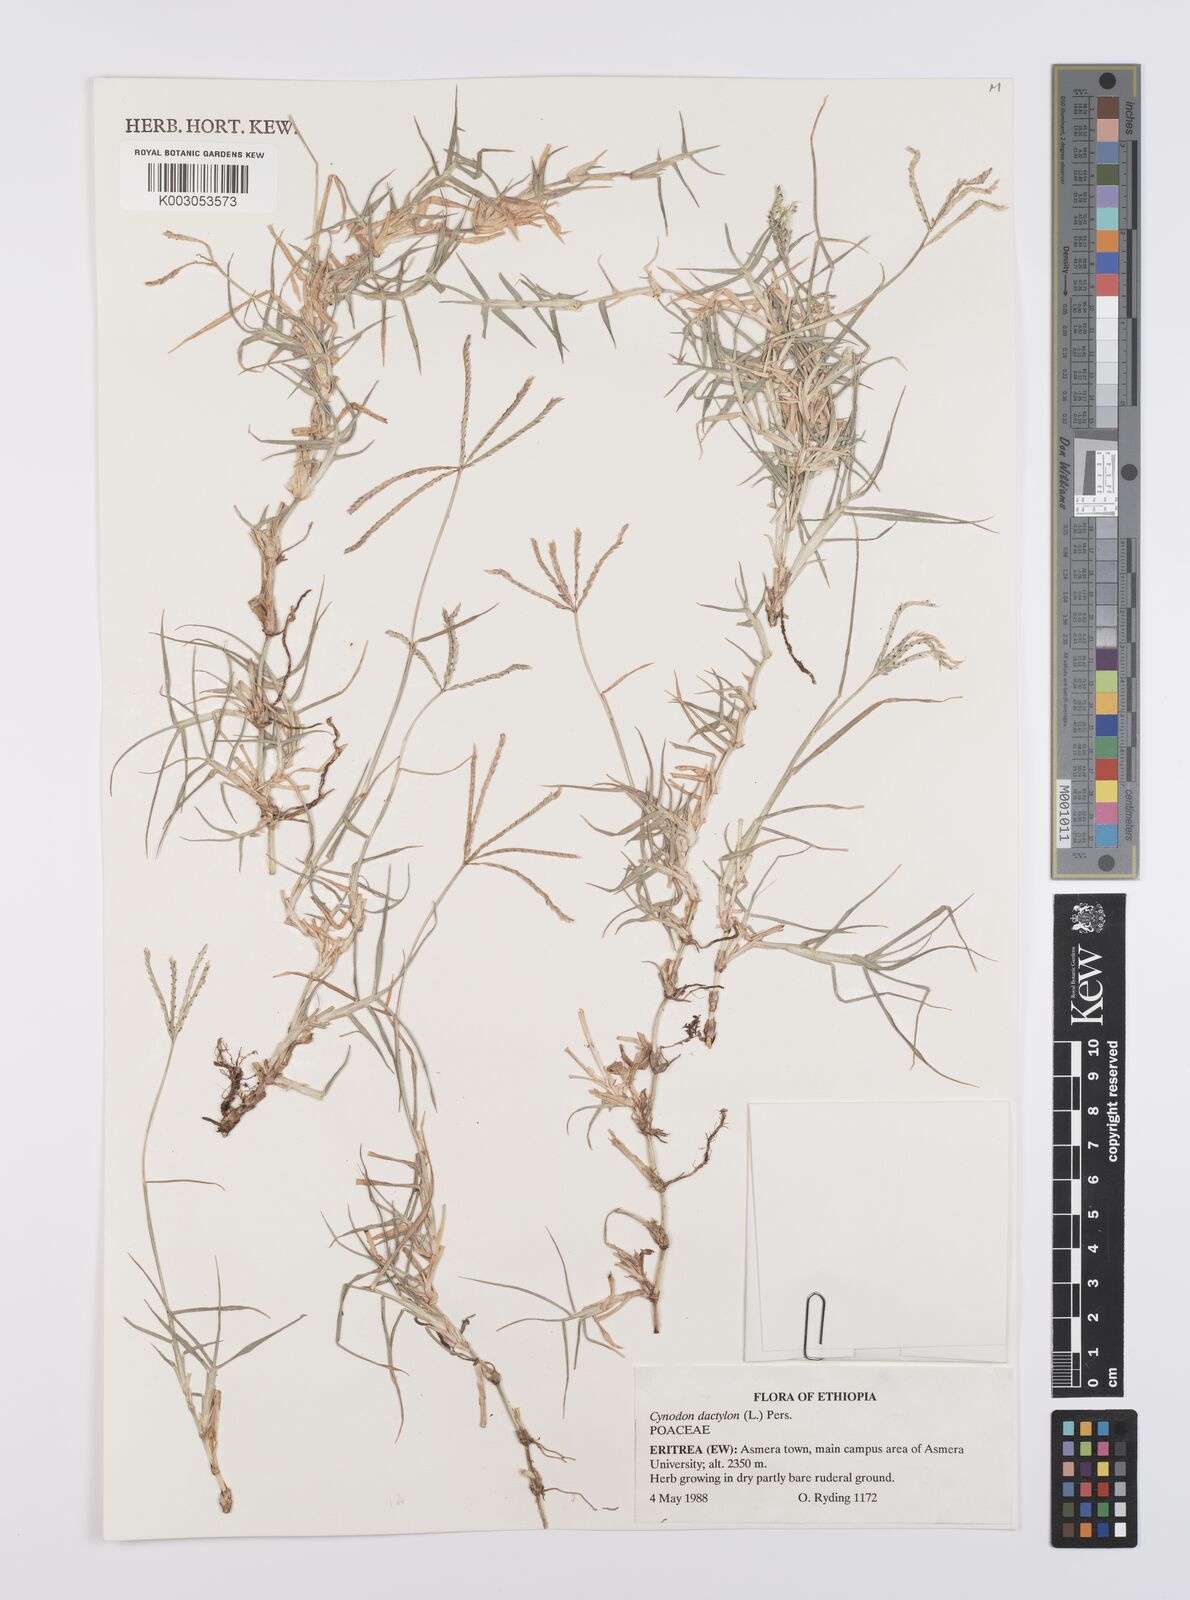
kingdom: Plantae
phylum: Tracheophyta
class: Liliopsida
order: Poales
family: Poaceae
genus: Cynodon
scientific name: Cynodon dactylon
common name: Bermuda grass
